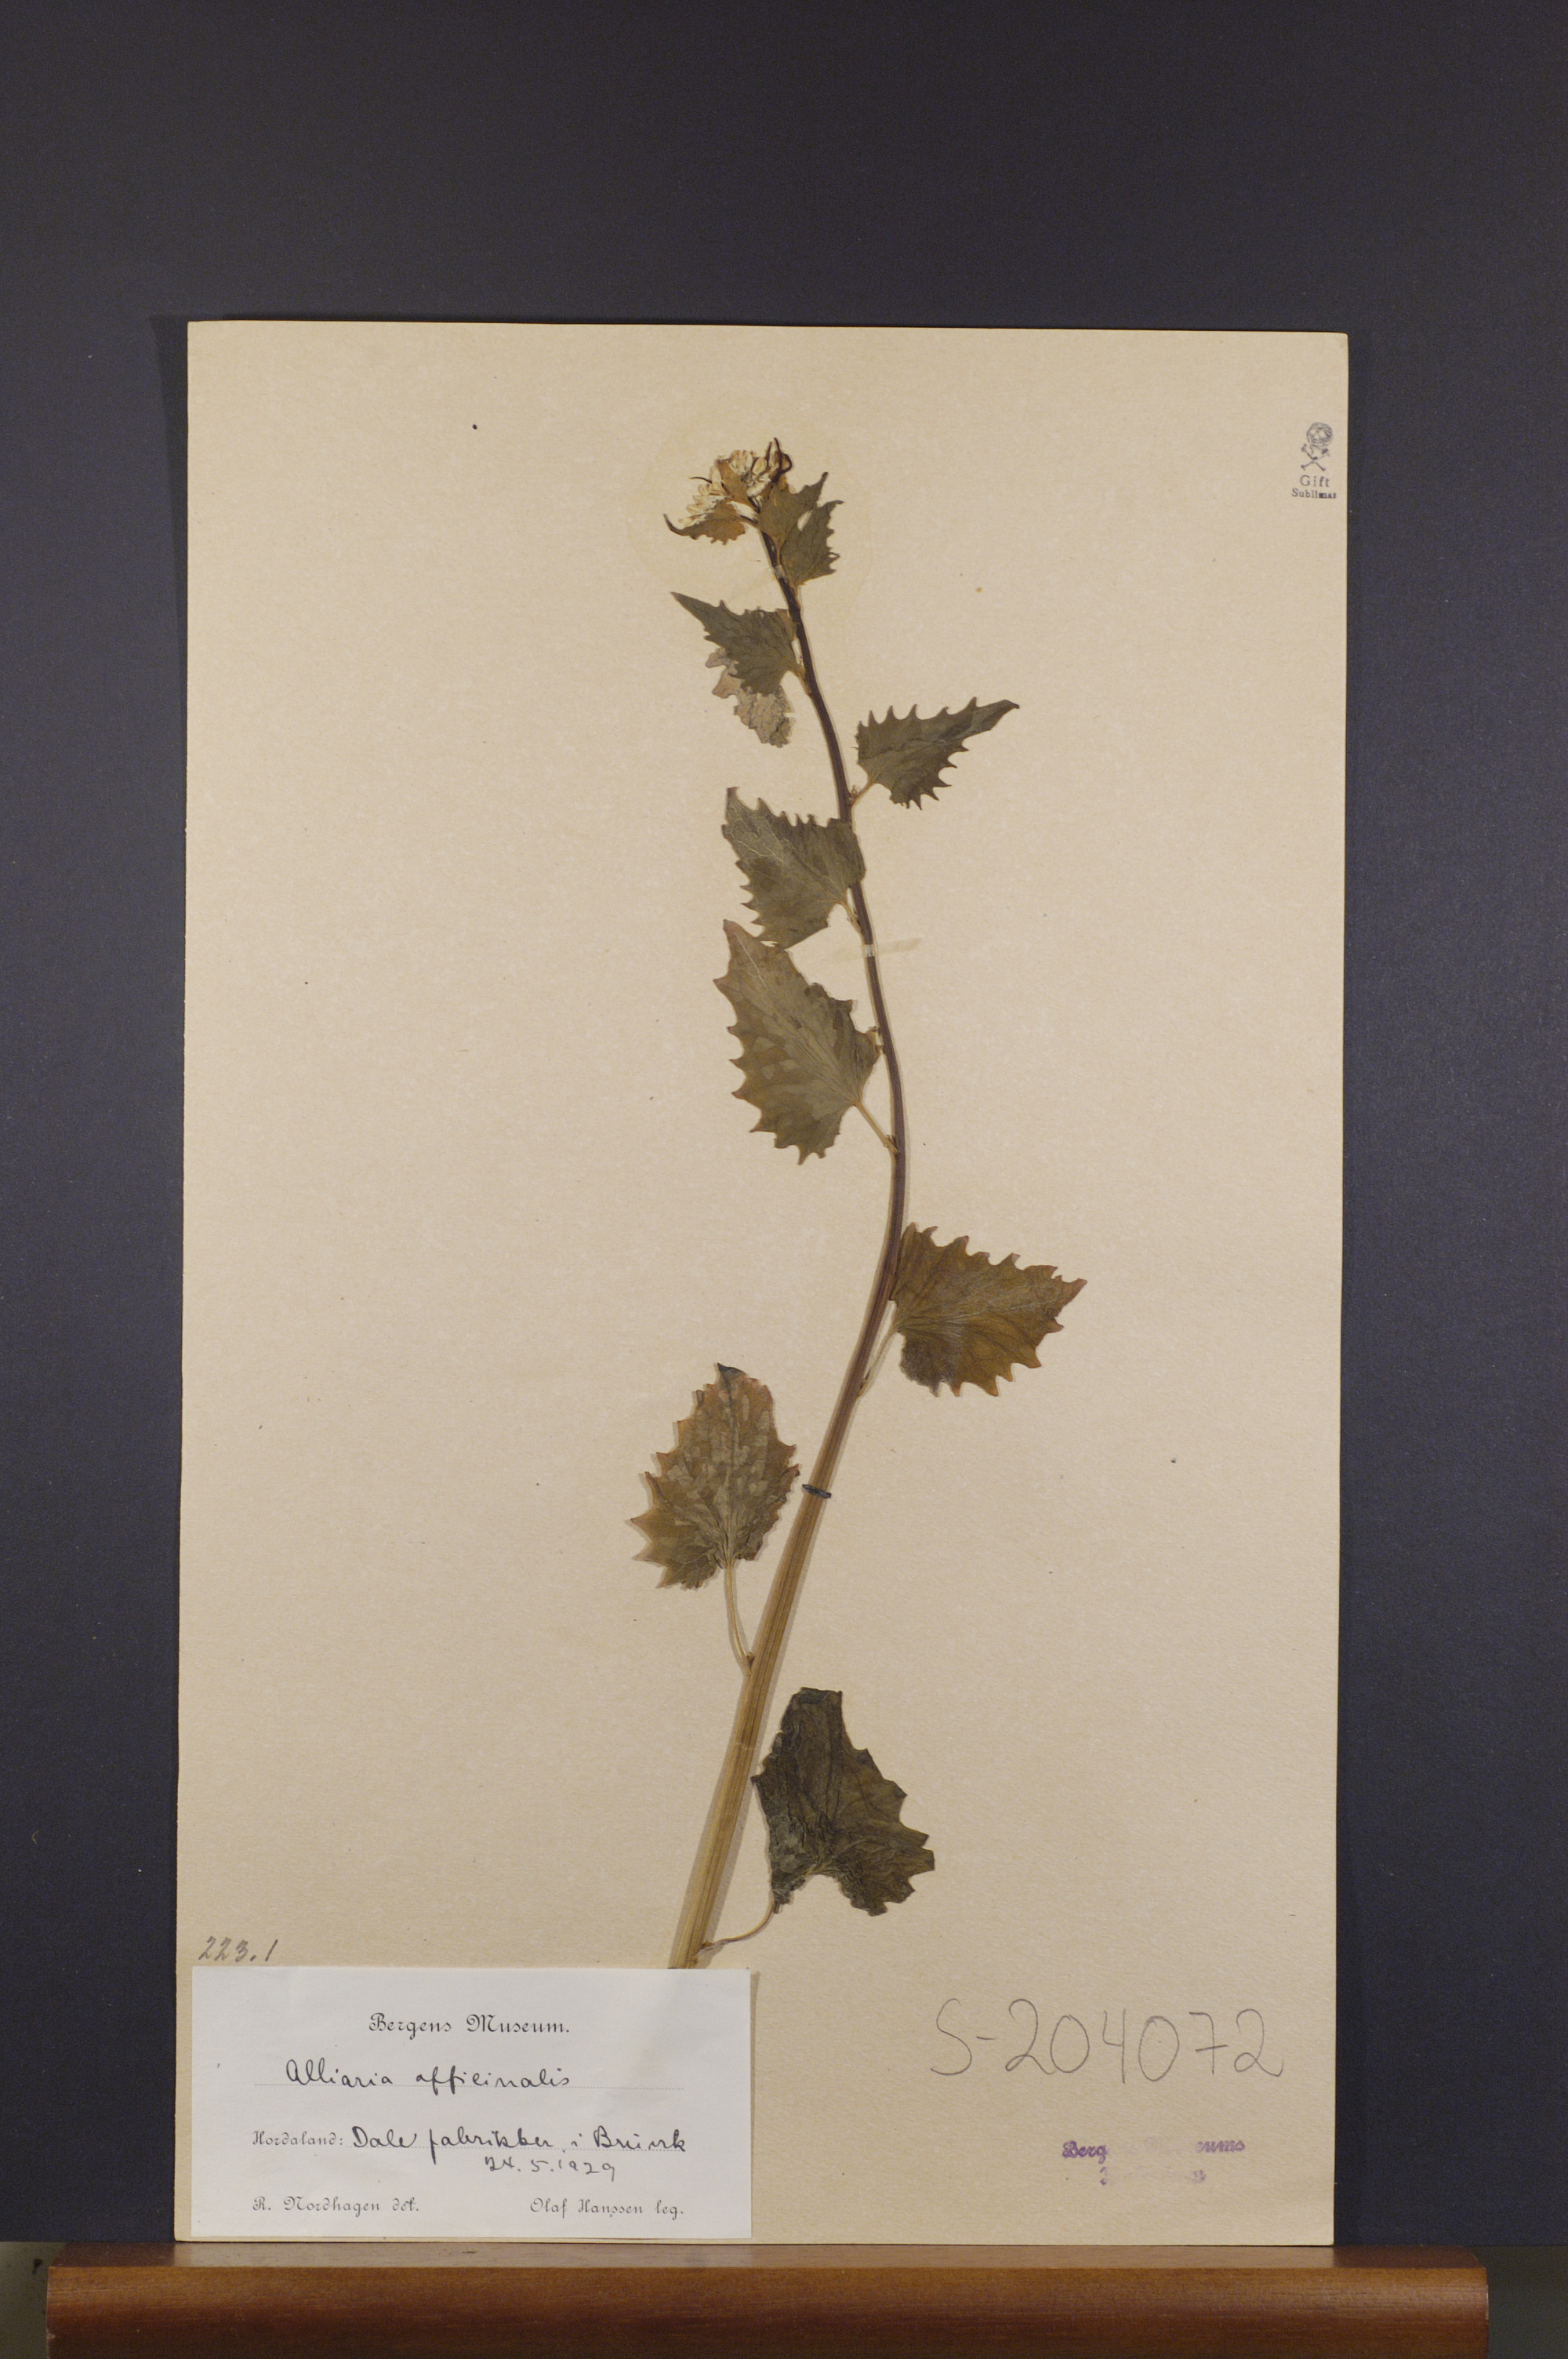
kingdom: Plantae
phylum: Tracheophyta
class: Magnoliopsida
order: Brassicales
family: Brassicaceae
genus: Alliaria
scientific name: Alliaria petiolata
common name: Garlic mustard
